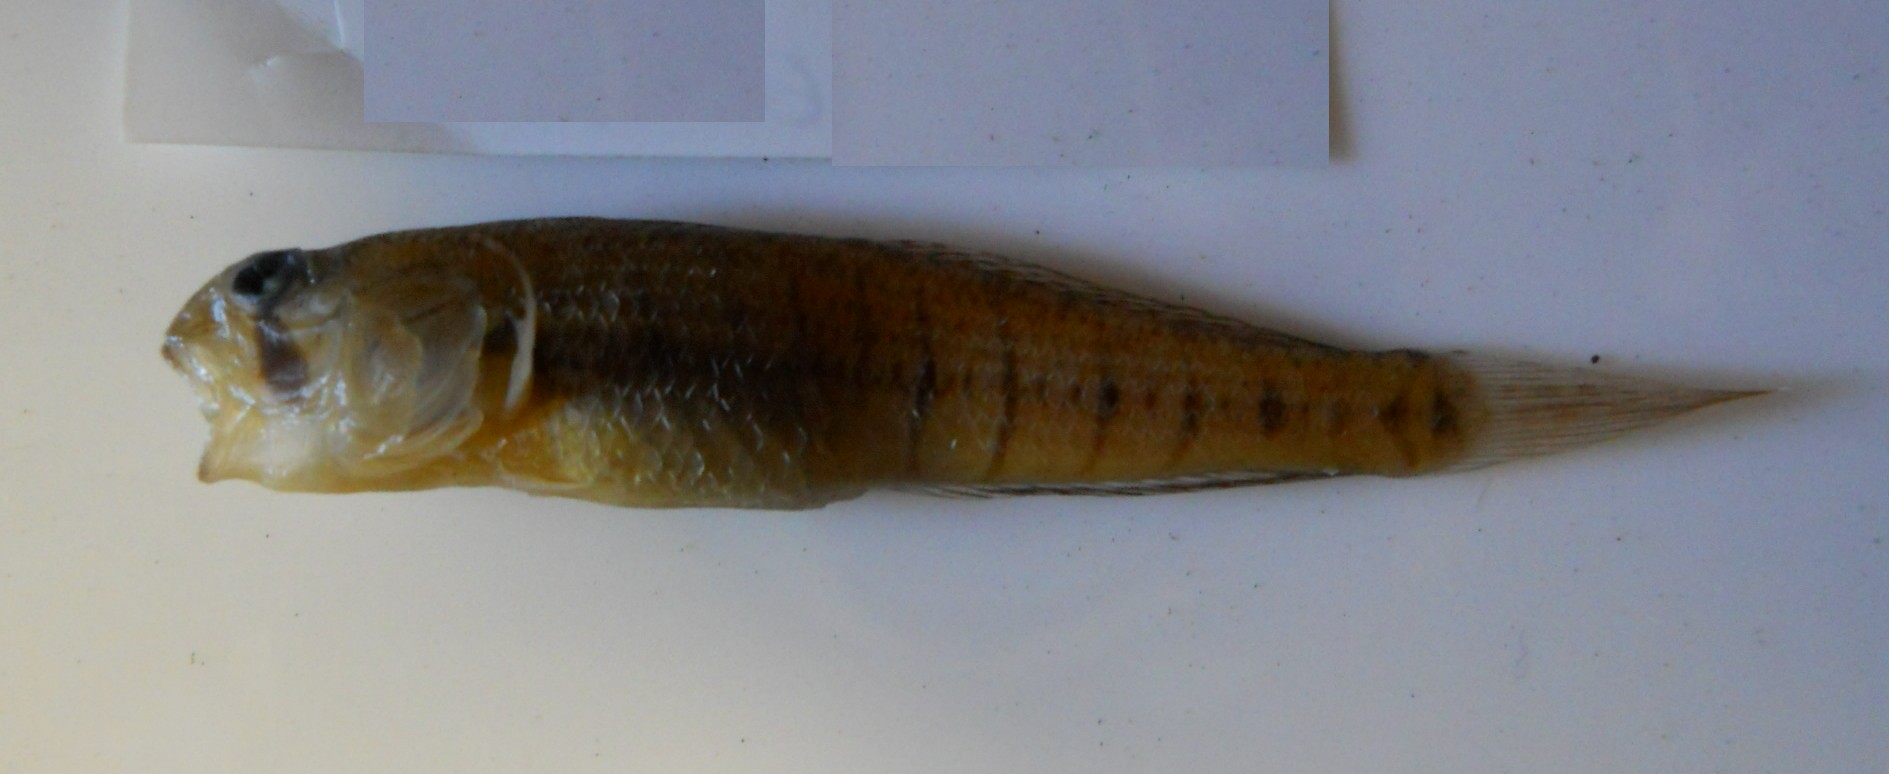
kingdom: Animalia
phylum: Chordata
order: Perciformes
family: Gobiidae
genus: Stenogobius
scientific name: Stenogobius polyzona
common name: Chinestripe goby
